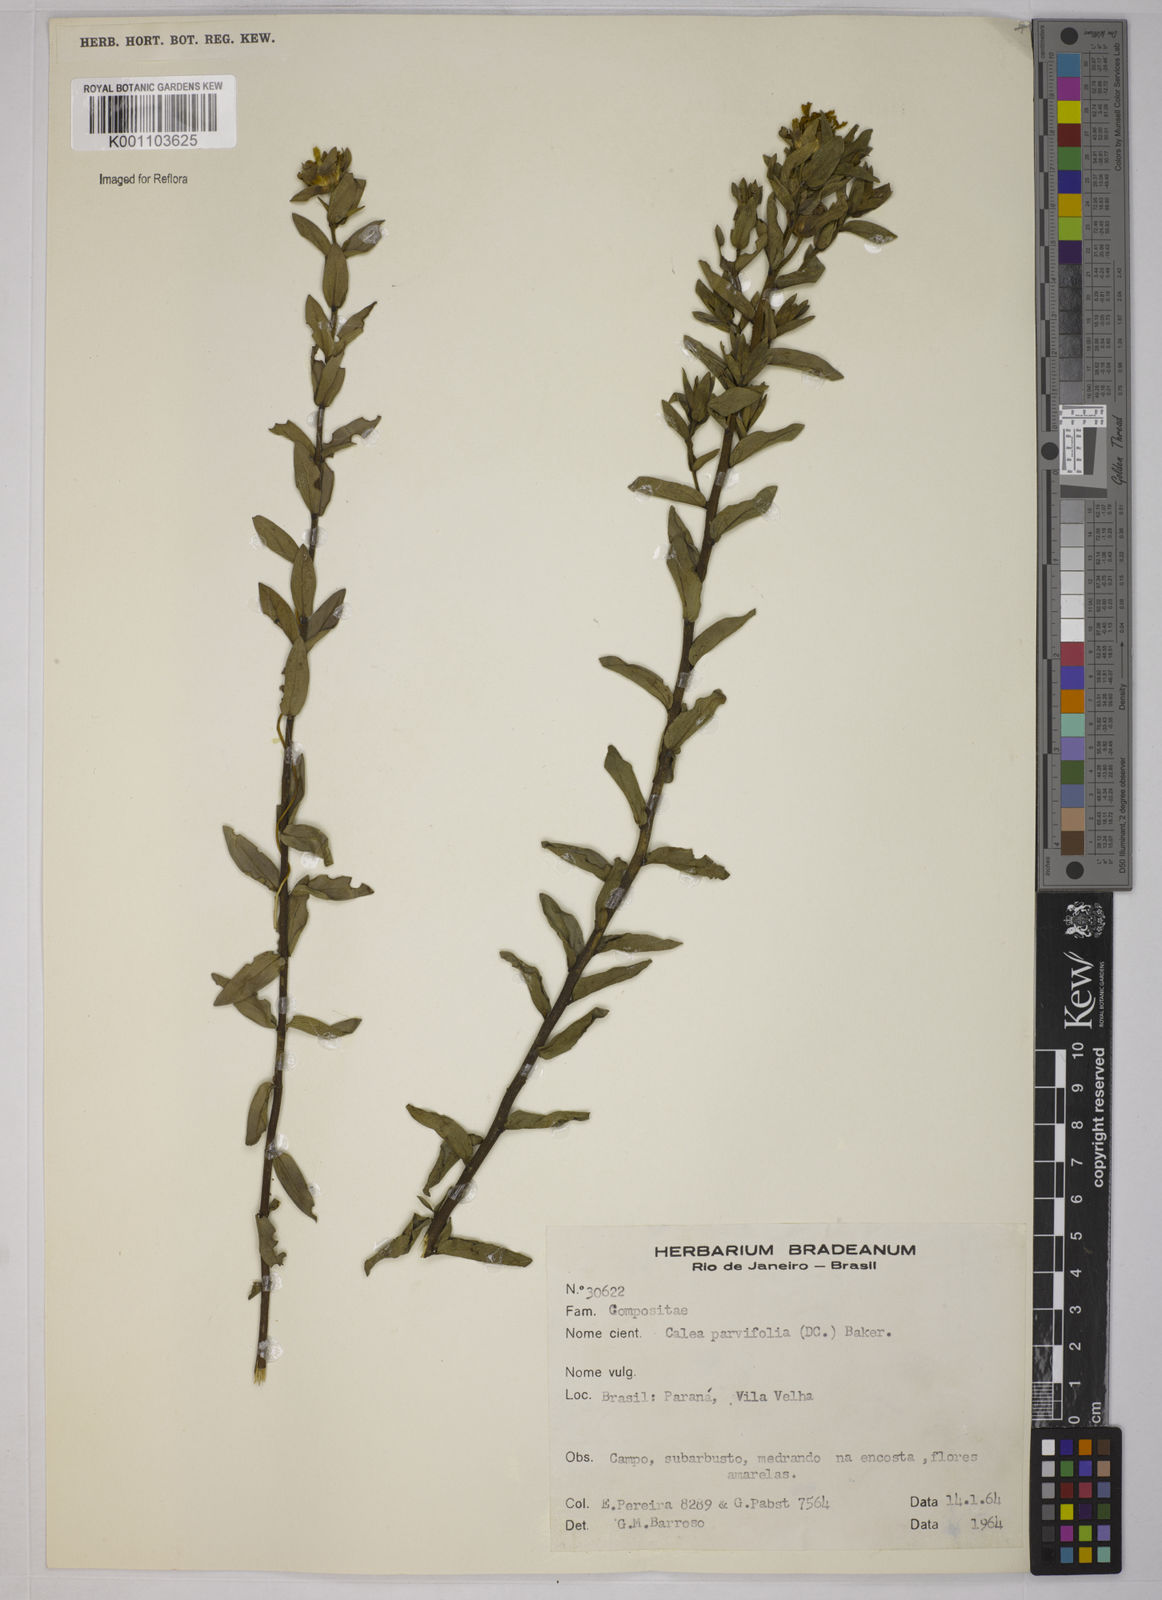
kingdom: Plantae
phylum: Tracheophyta
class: Magnoliopsida
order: Asterales
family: Asteraceae
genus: Calea
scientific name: Calea parvifolia
